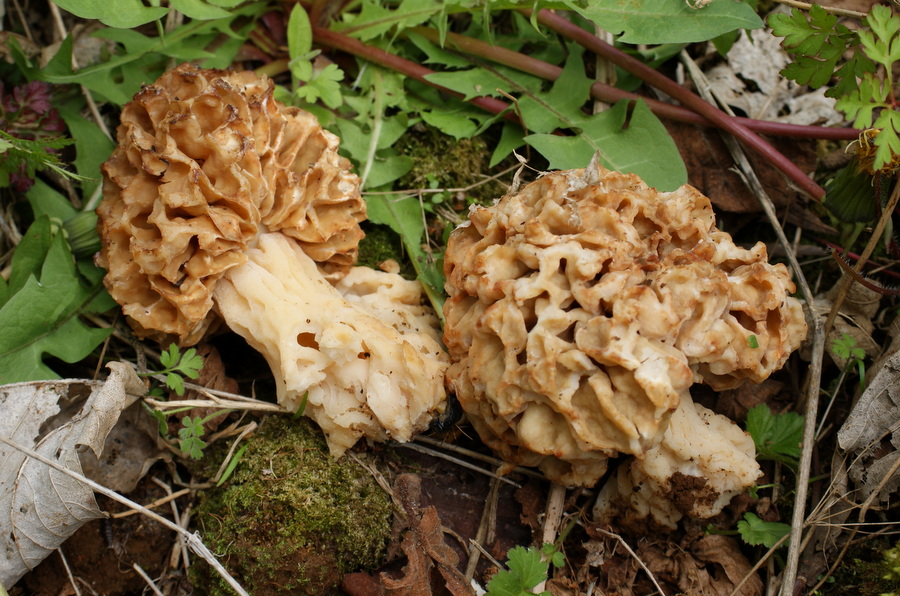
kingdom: Fungi
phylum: Ascomycota
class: Pezizomycetes
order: Pezizales
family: Morchellaceae
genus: Morchella
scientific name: Morchella esculenta
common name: spiselig morkel
